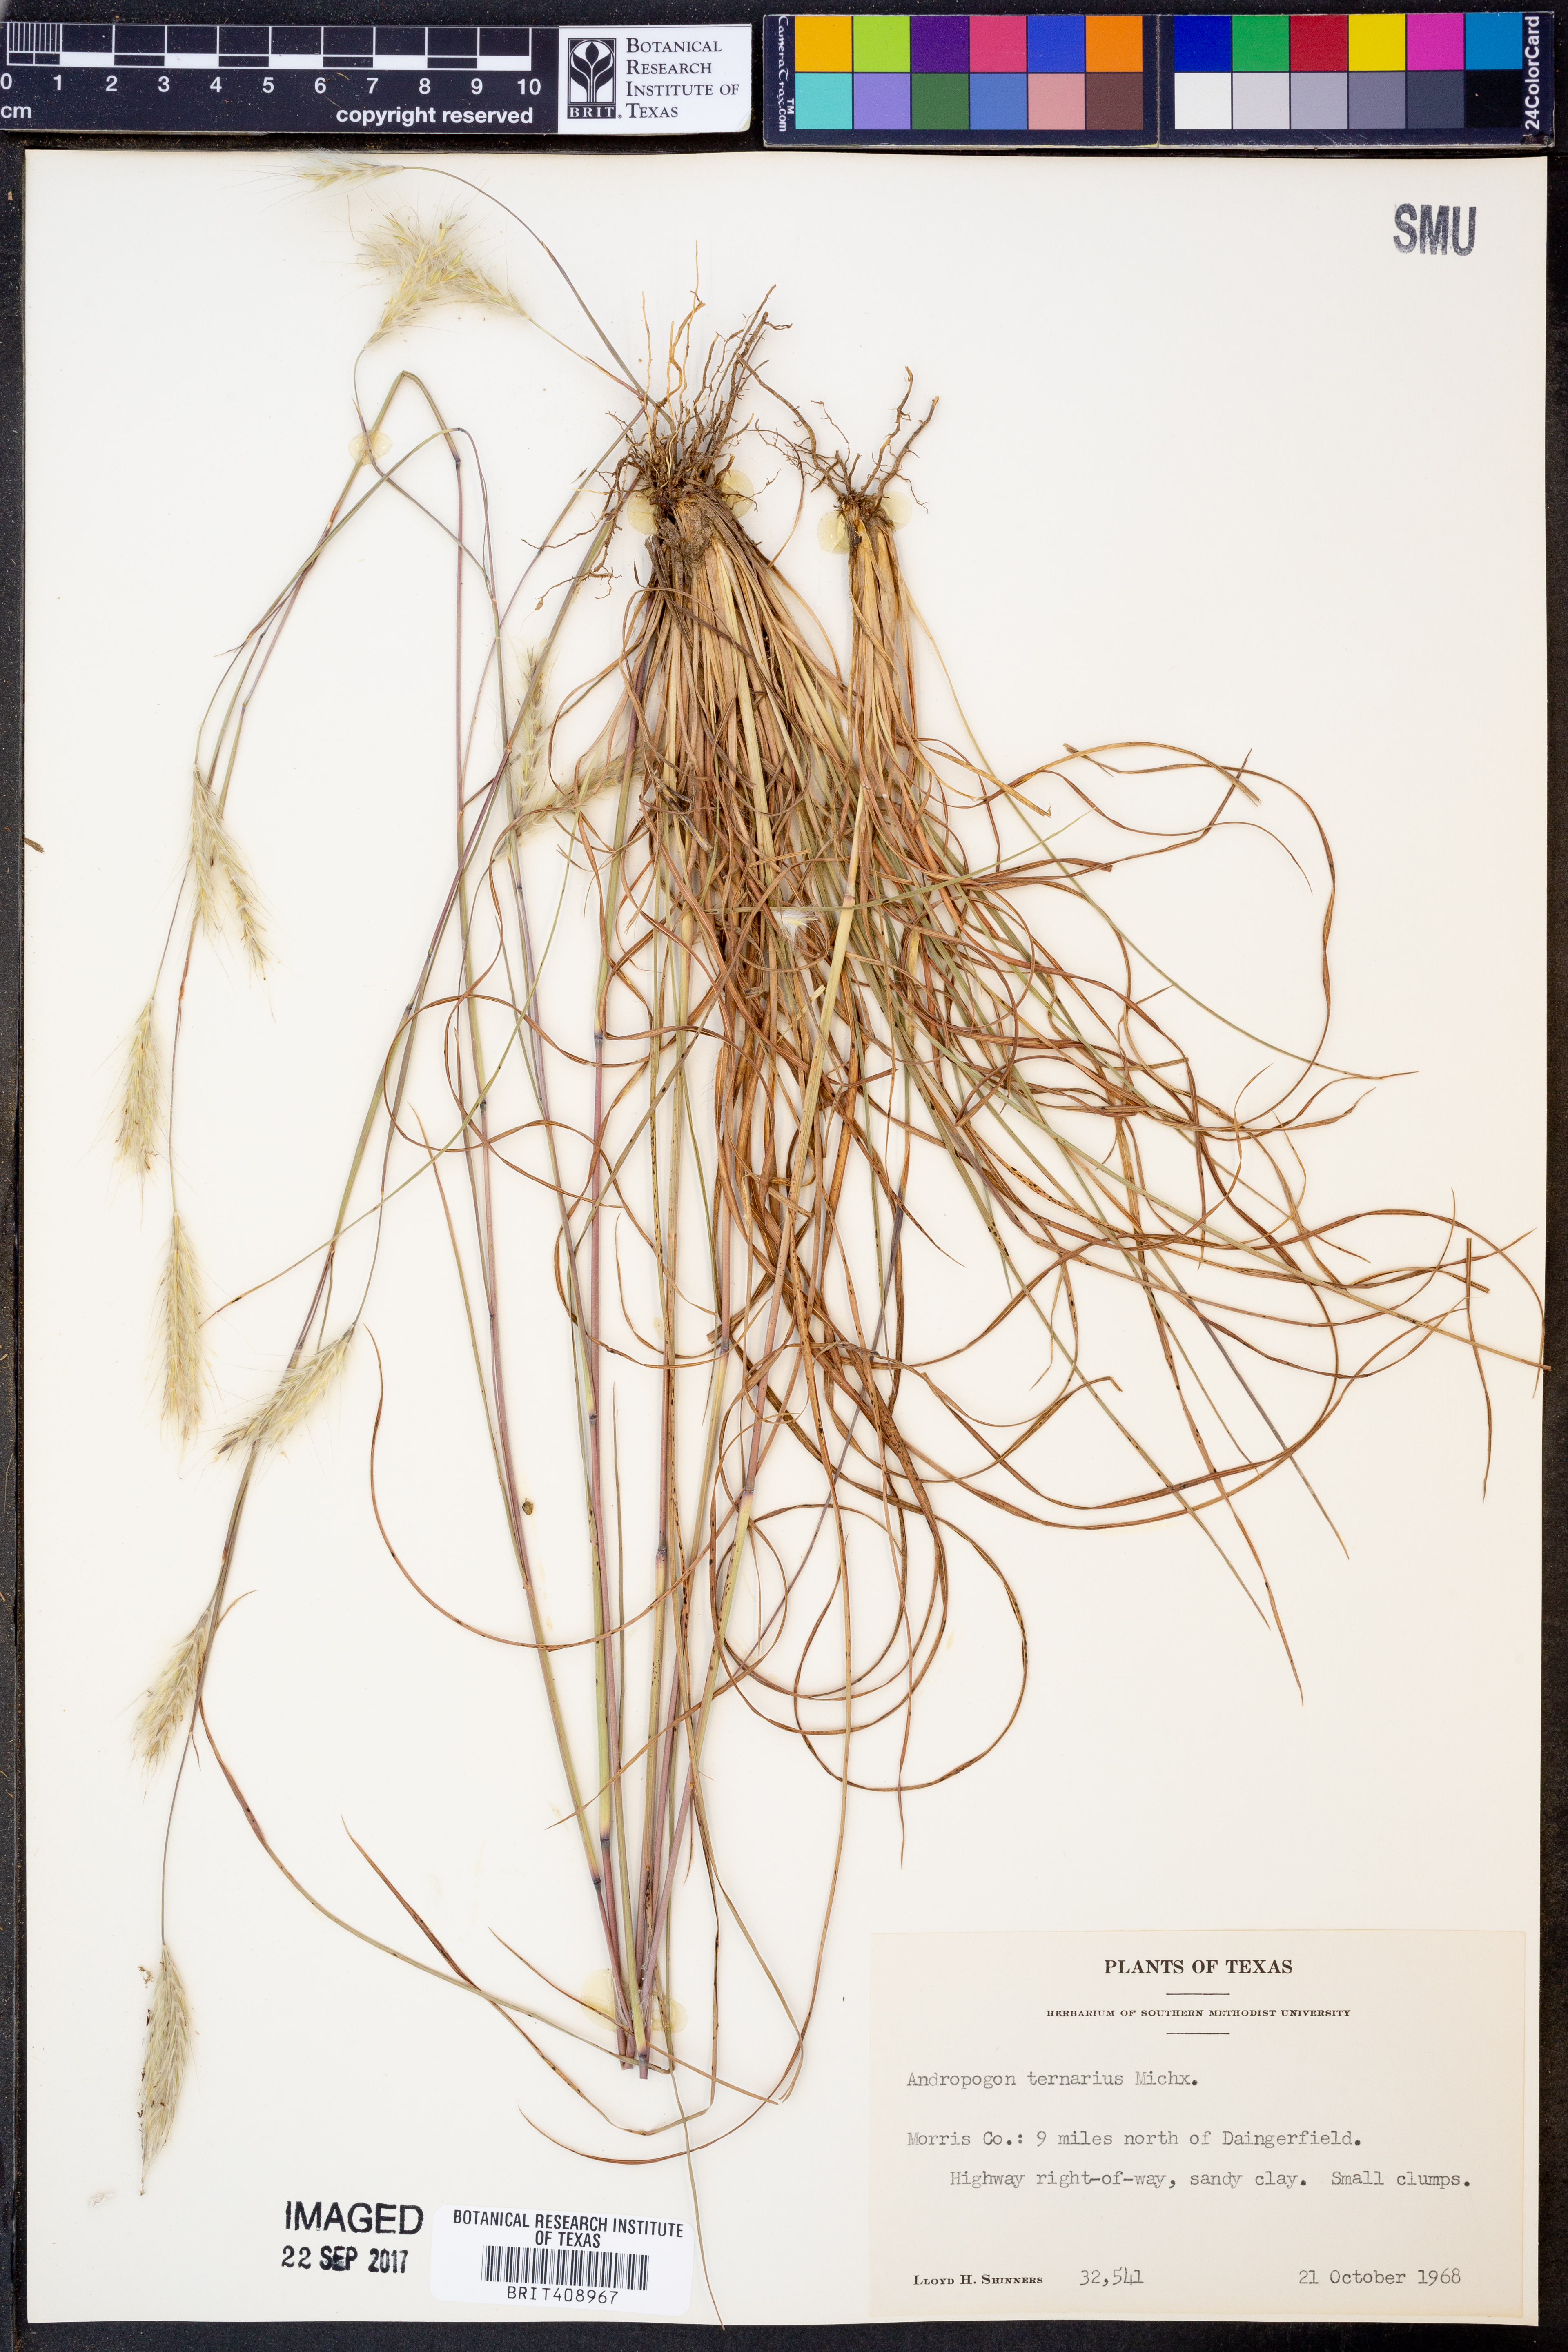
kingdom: Plantae
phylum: Tracheophyta
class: Liliopsida
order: Poales
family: Poaceae
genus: Andropogon
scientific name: Andropogon ternarius
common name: Split bluestem
